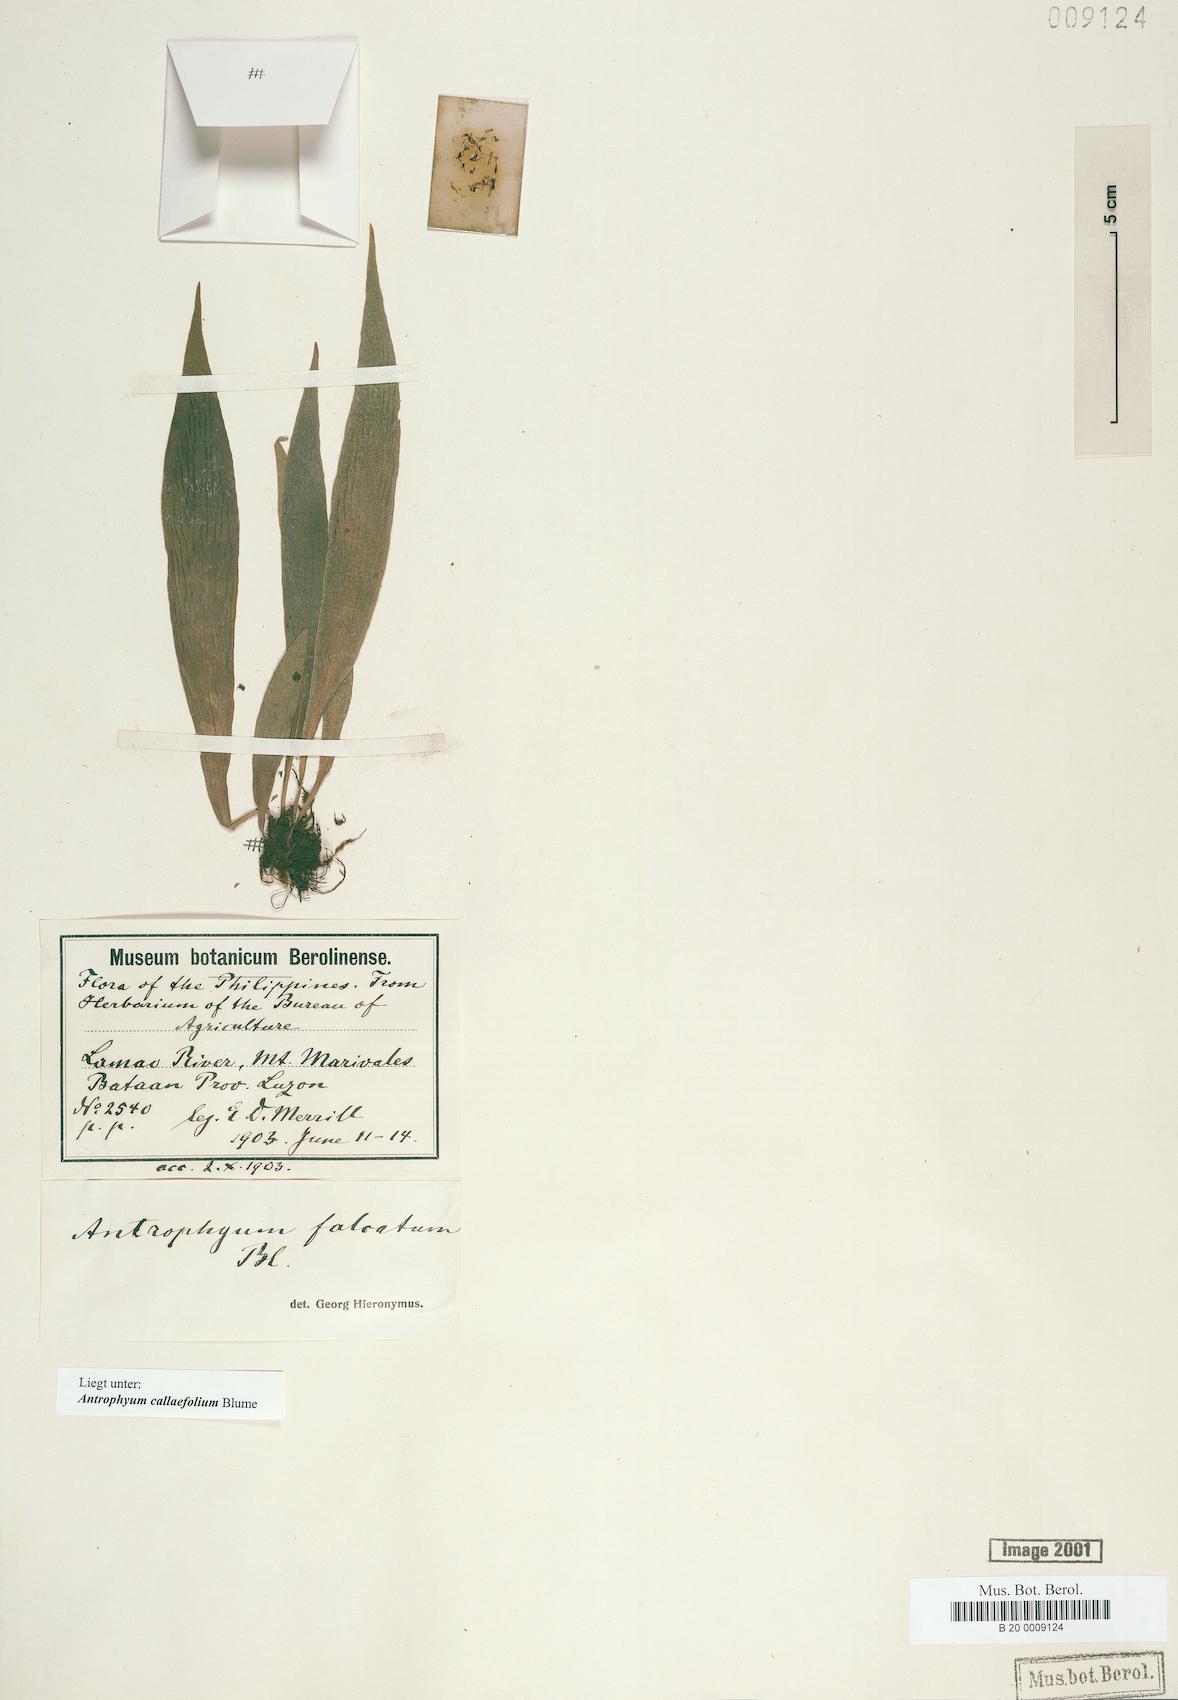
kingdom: Plantae
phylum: Tracheophyta
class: Polypodiopsida
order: Polypodiales
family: Pteridaceae
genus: Antrophyum
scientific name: Antrophyum callifolium
